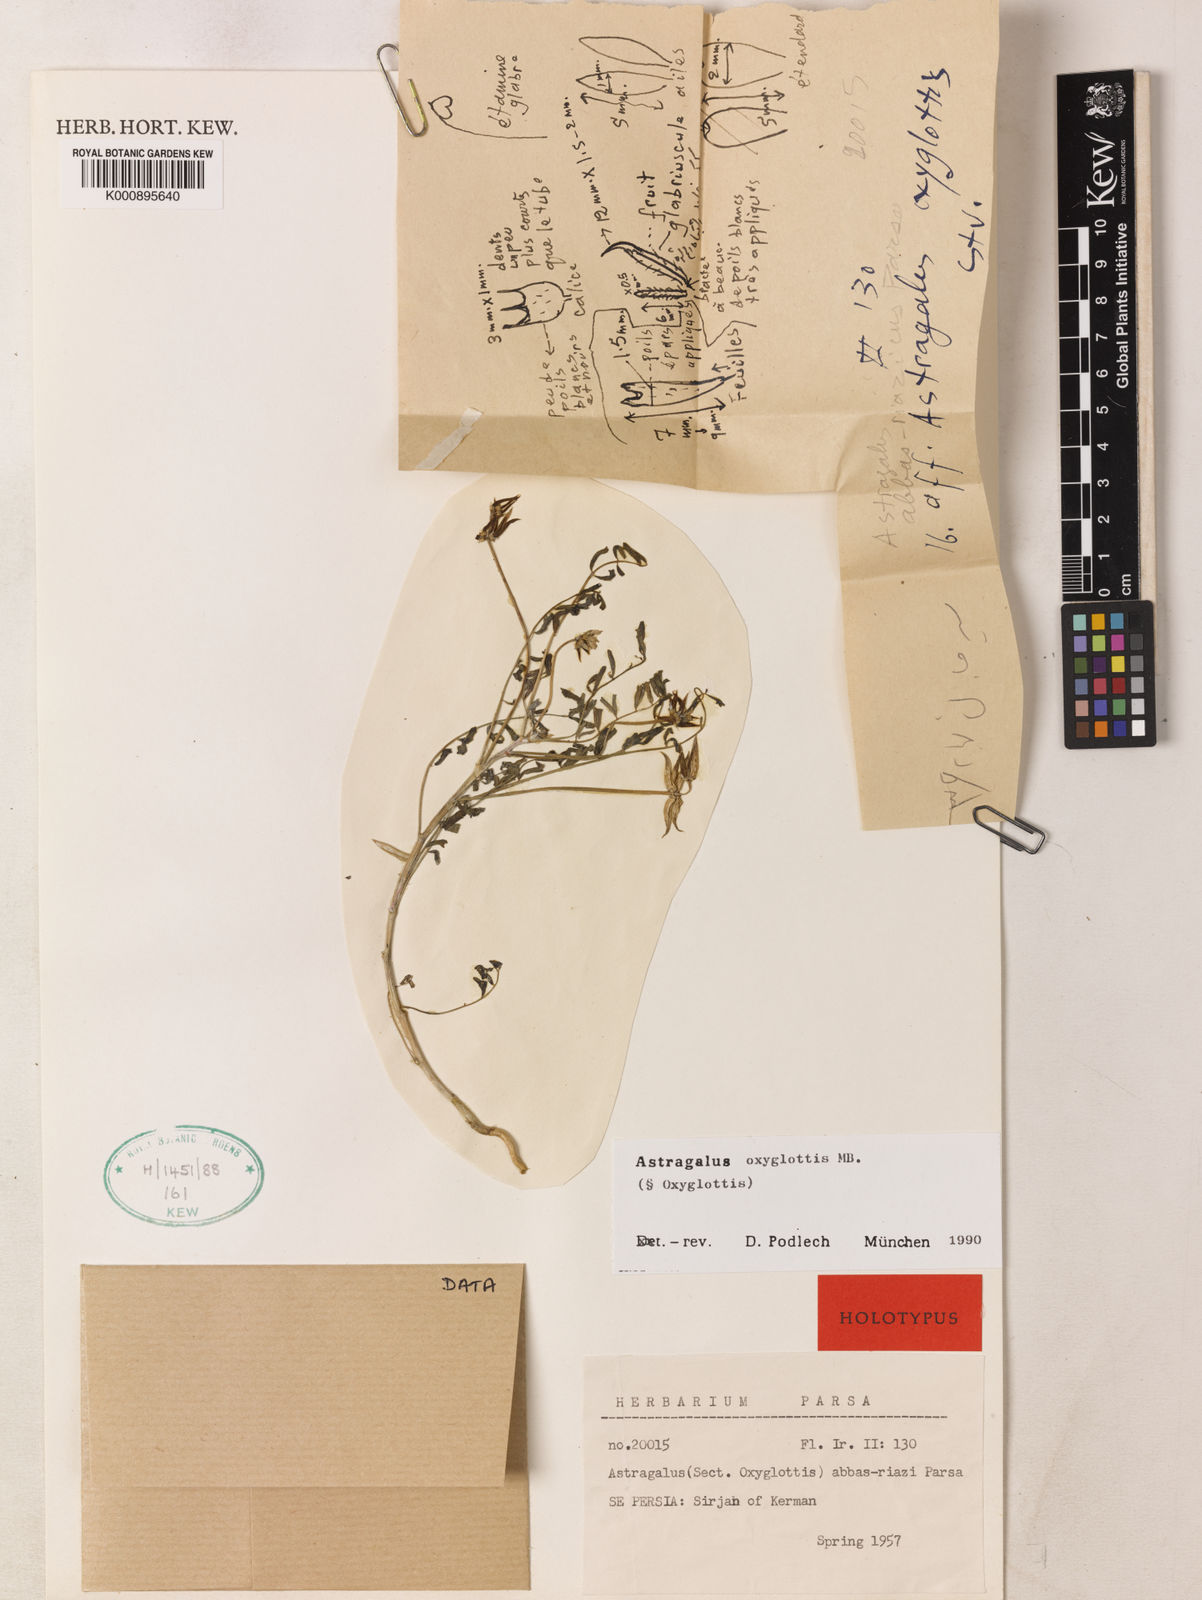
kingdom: Plantae
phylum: Tracheophyta
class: Magnoliopsida
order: Fabales
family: Fabaceae
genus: Astragalus
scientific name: Astragalus oxyglottis
